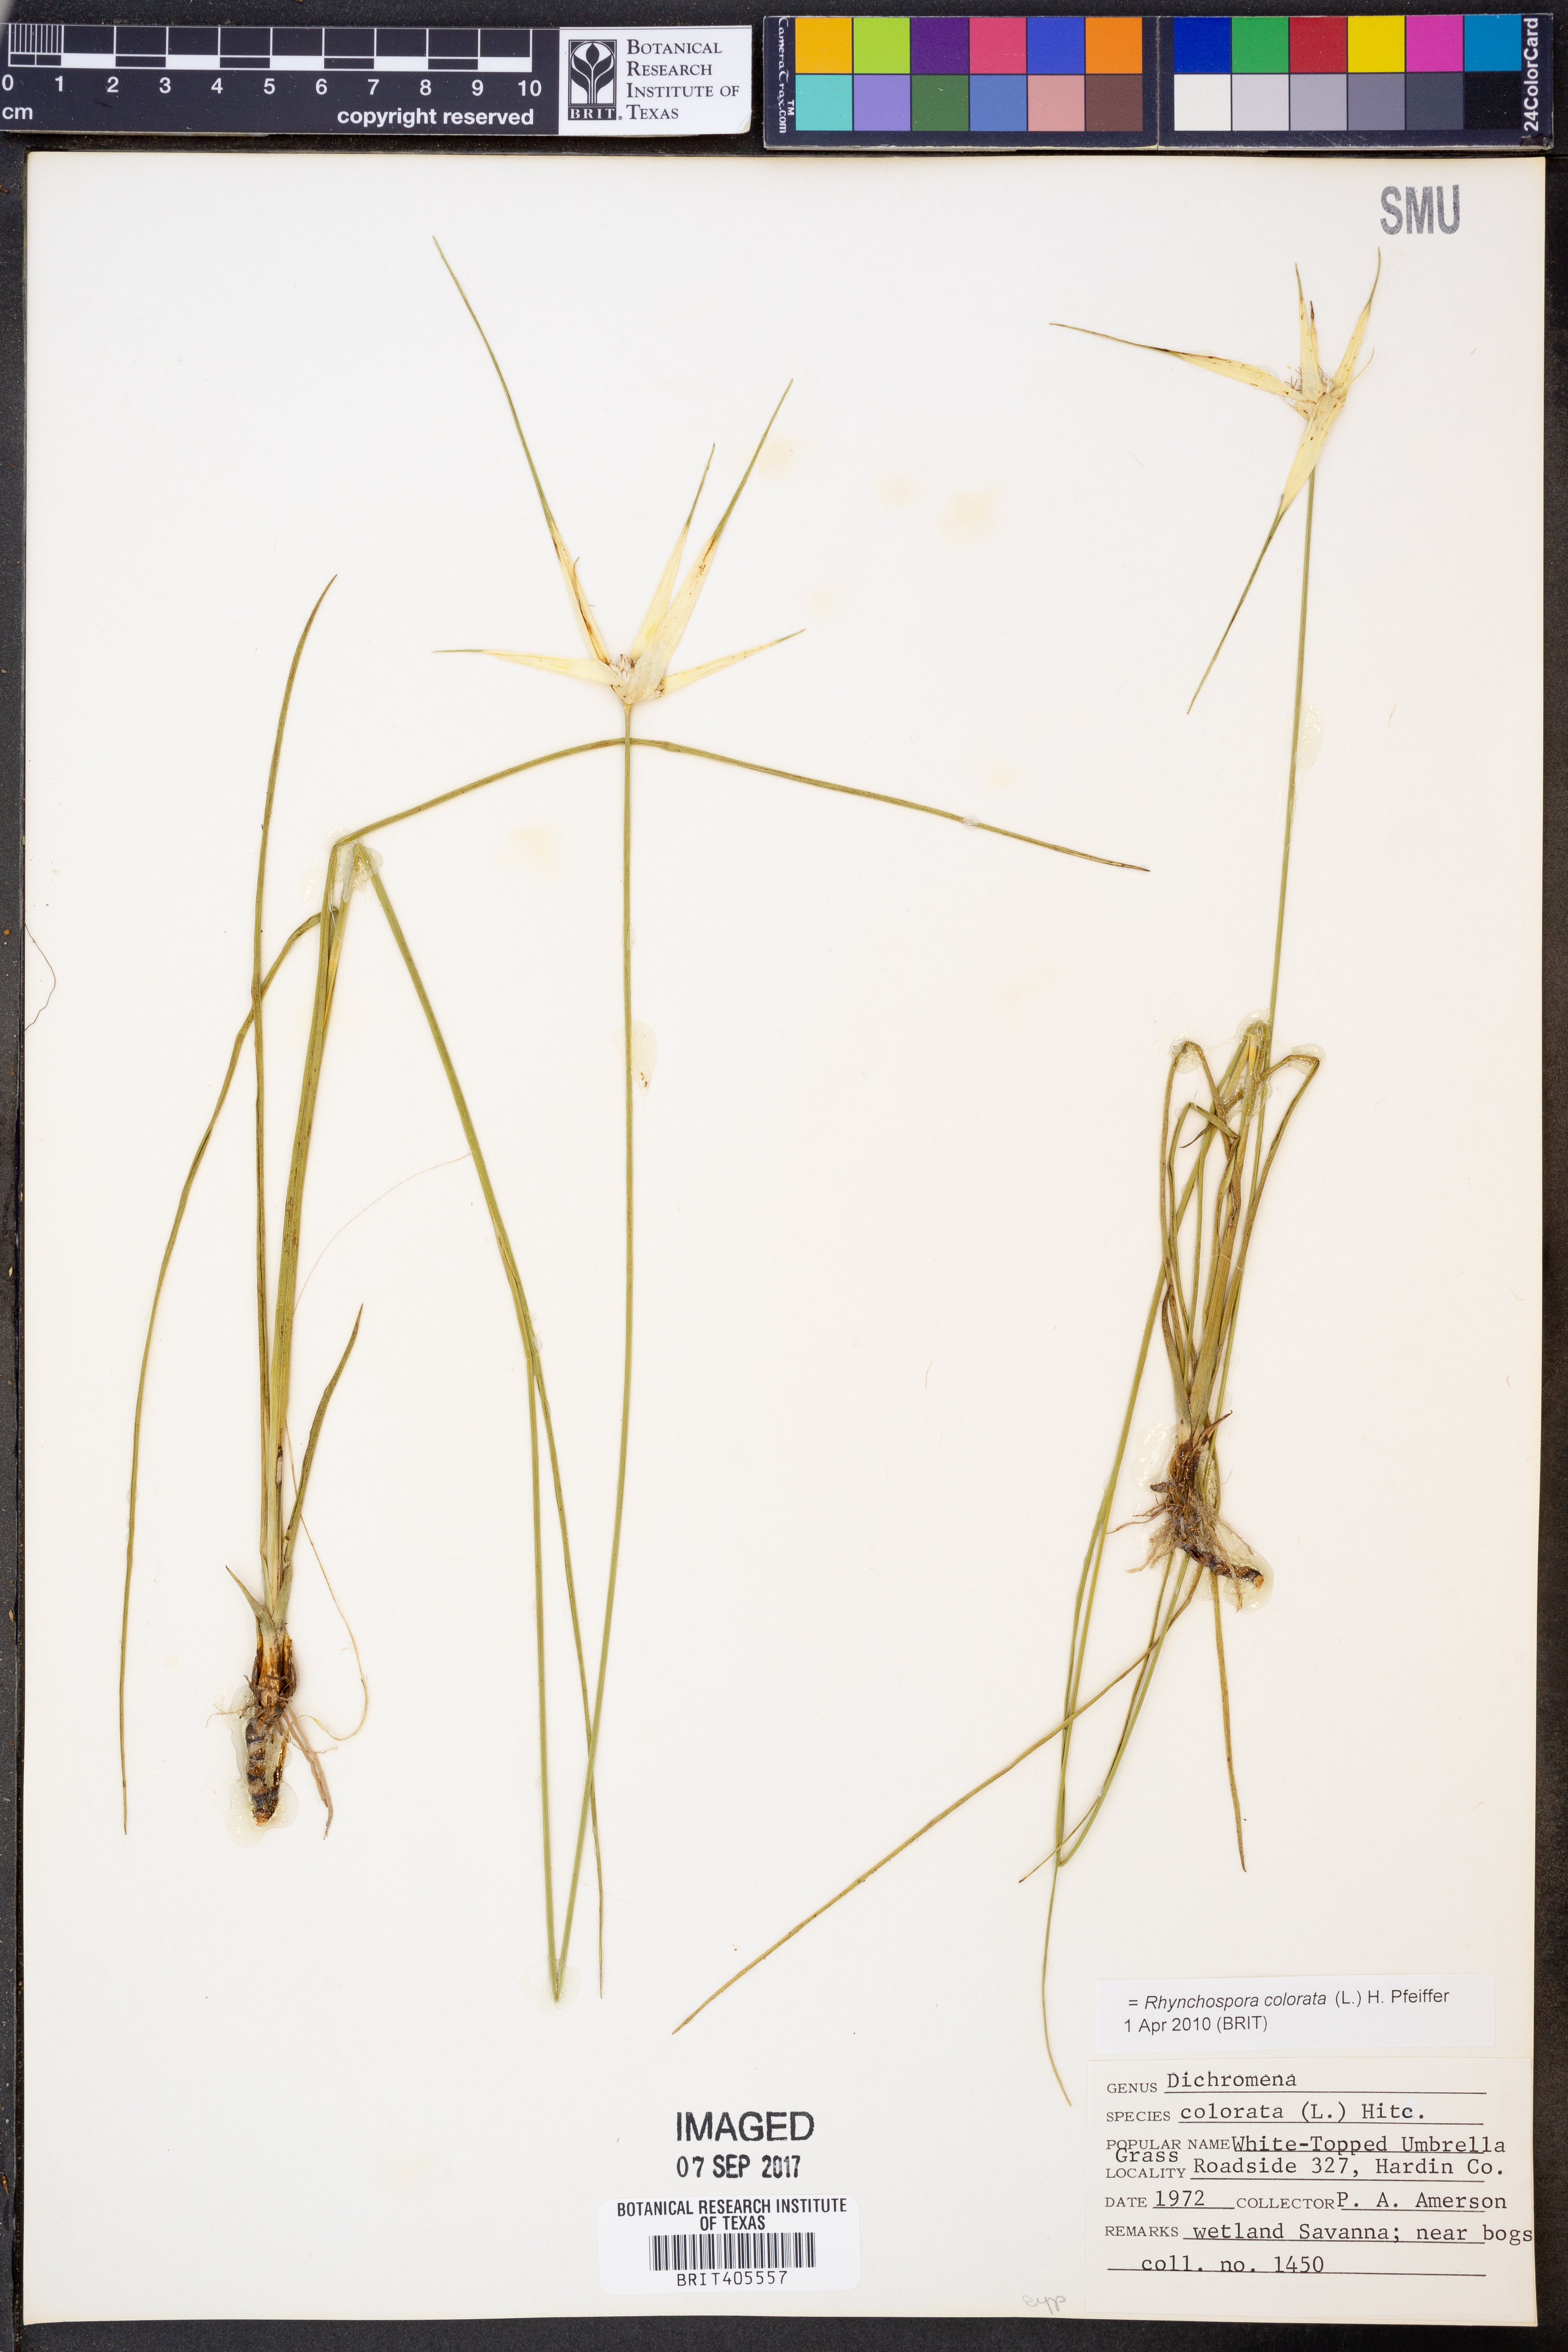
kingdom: Plantae
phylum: Tracheophyta
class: Liliopsida
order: Poales
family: Cyperaceae
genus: Rhynchospora
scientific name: Rhynchospora colorata
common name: Star sedge
